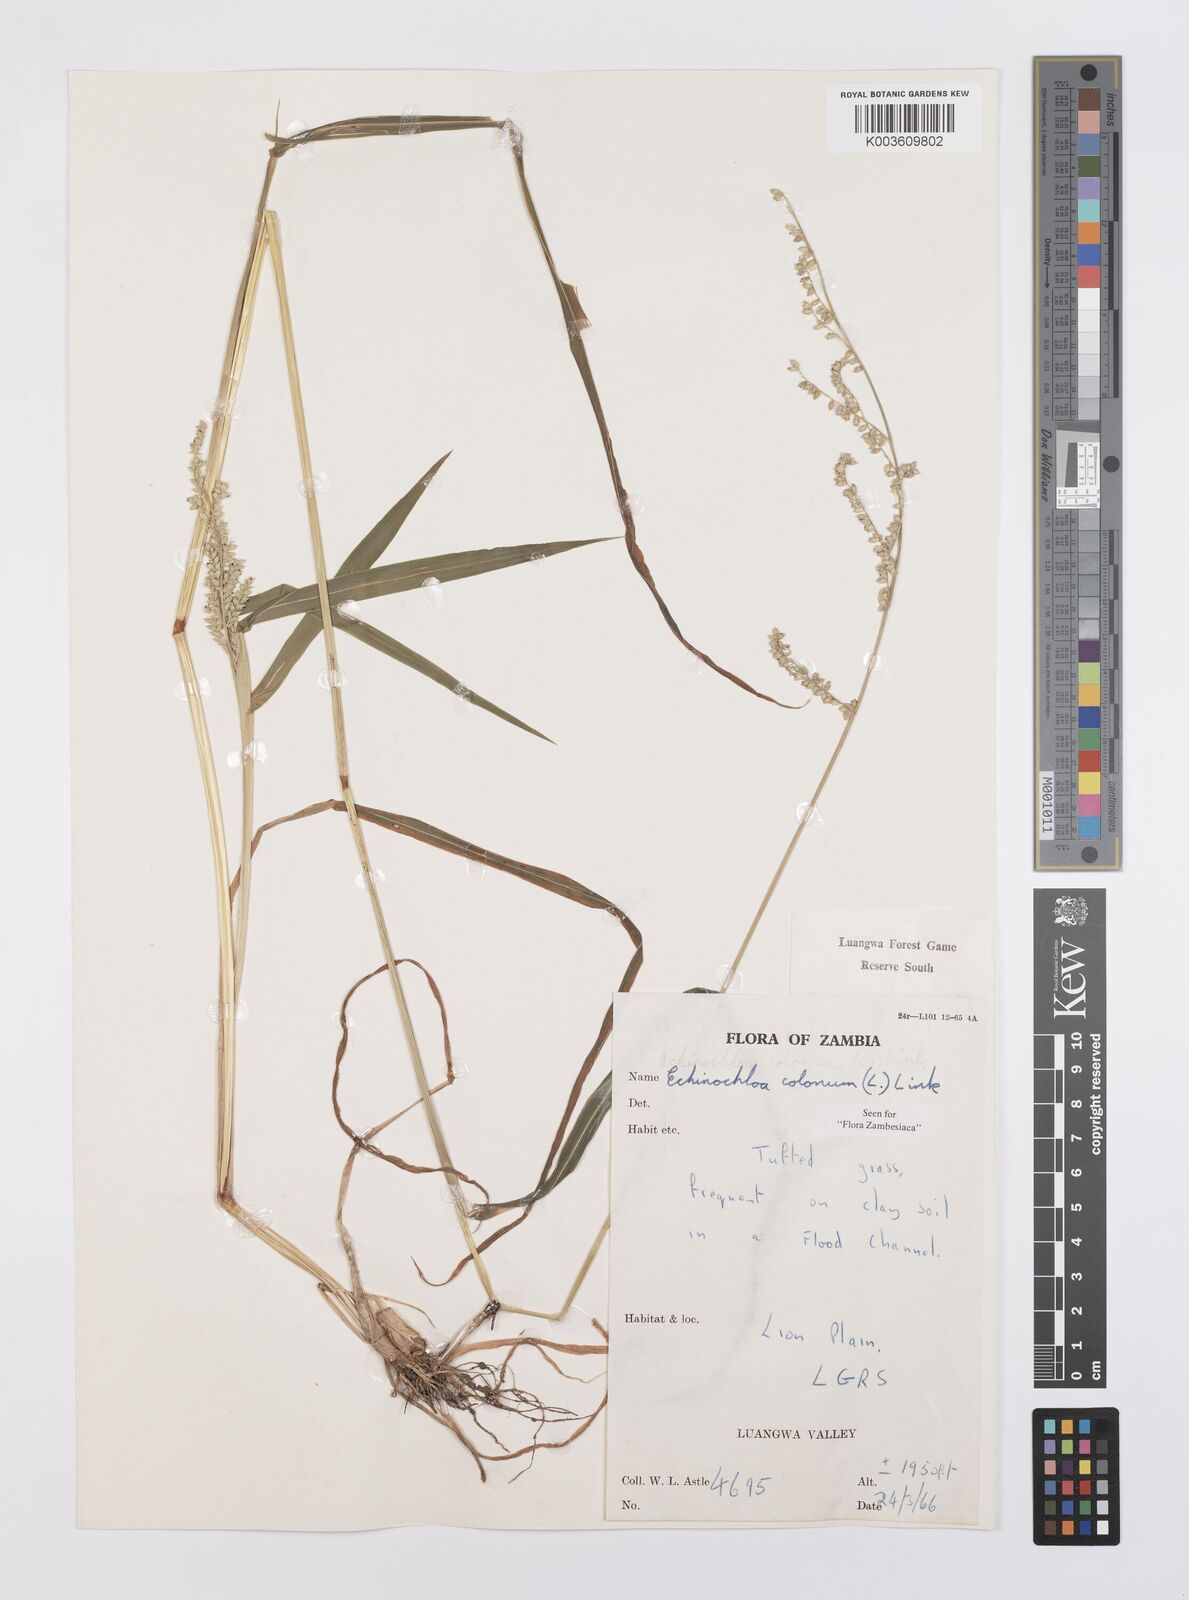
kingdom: Plantae
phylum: Tracheophyta
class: Liliopsida
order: Poales
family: Poaceae
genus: Echinochloa
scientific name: Echinochloa colonum
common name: Jungle rice
